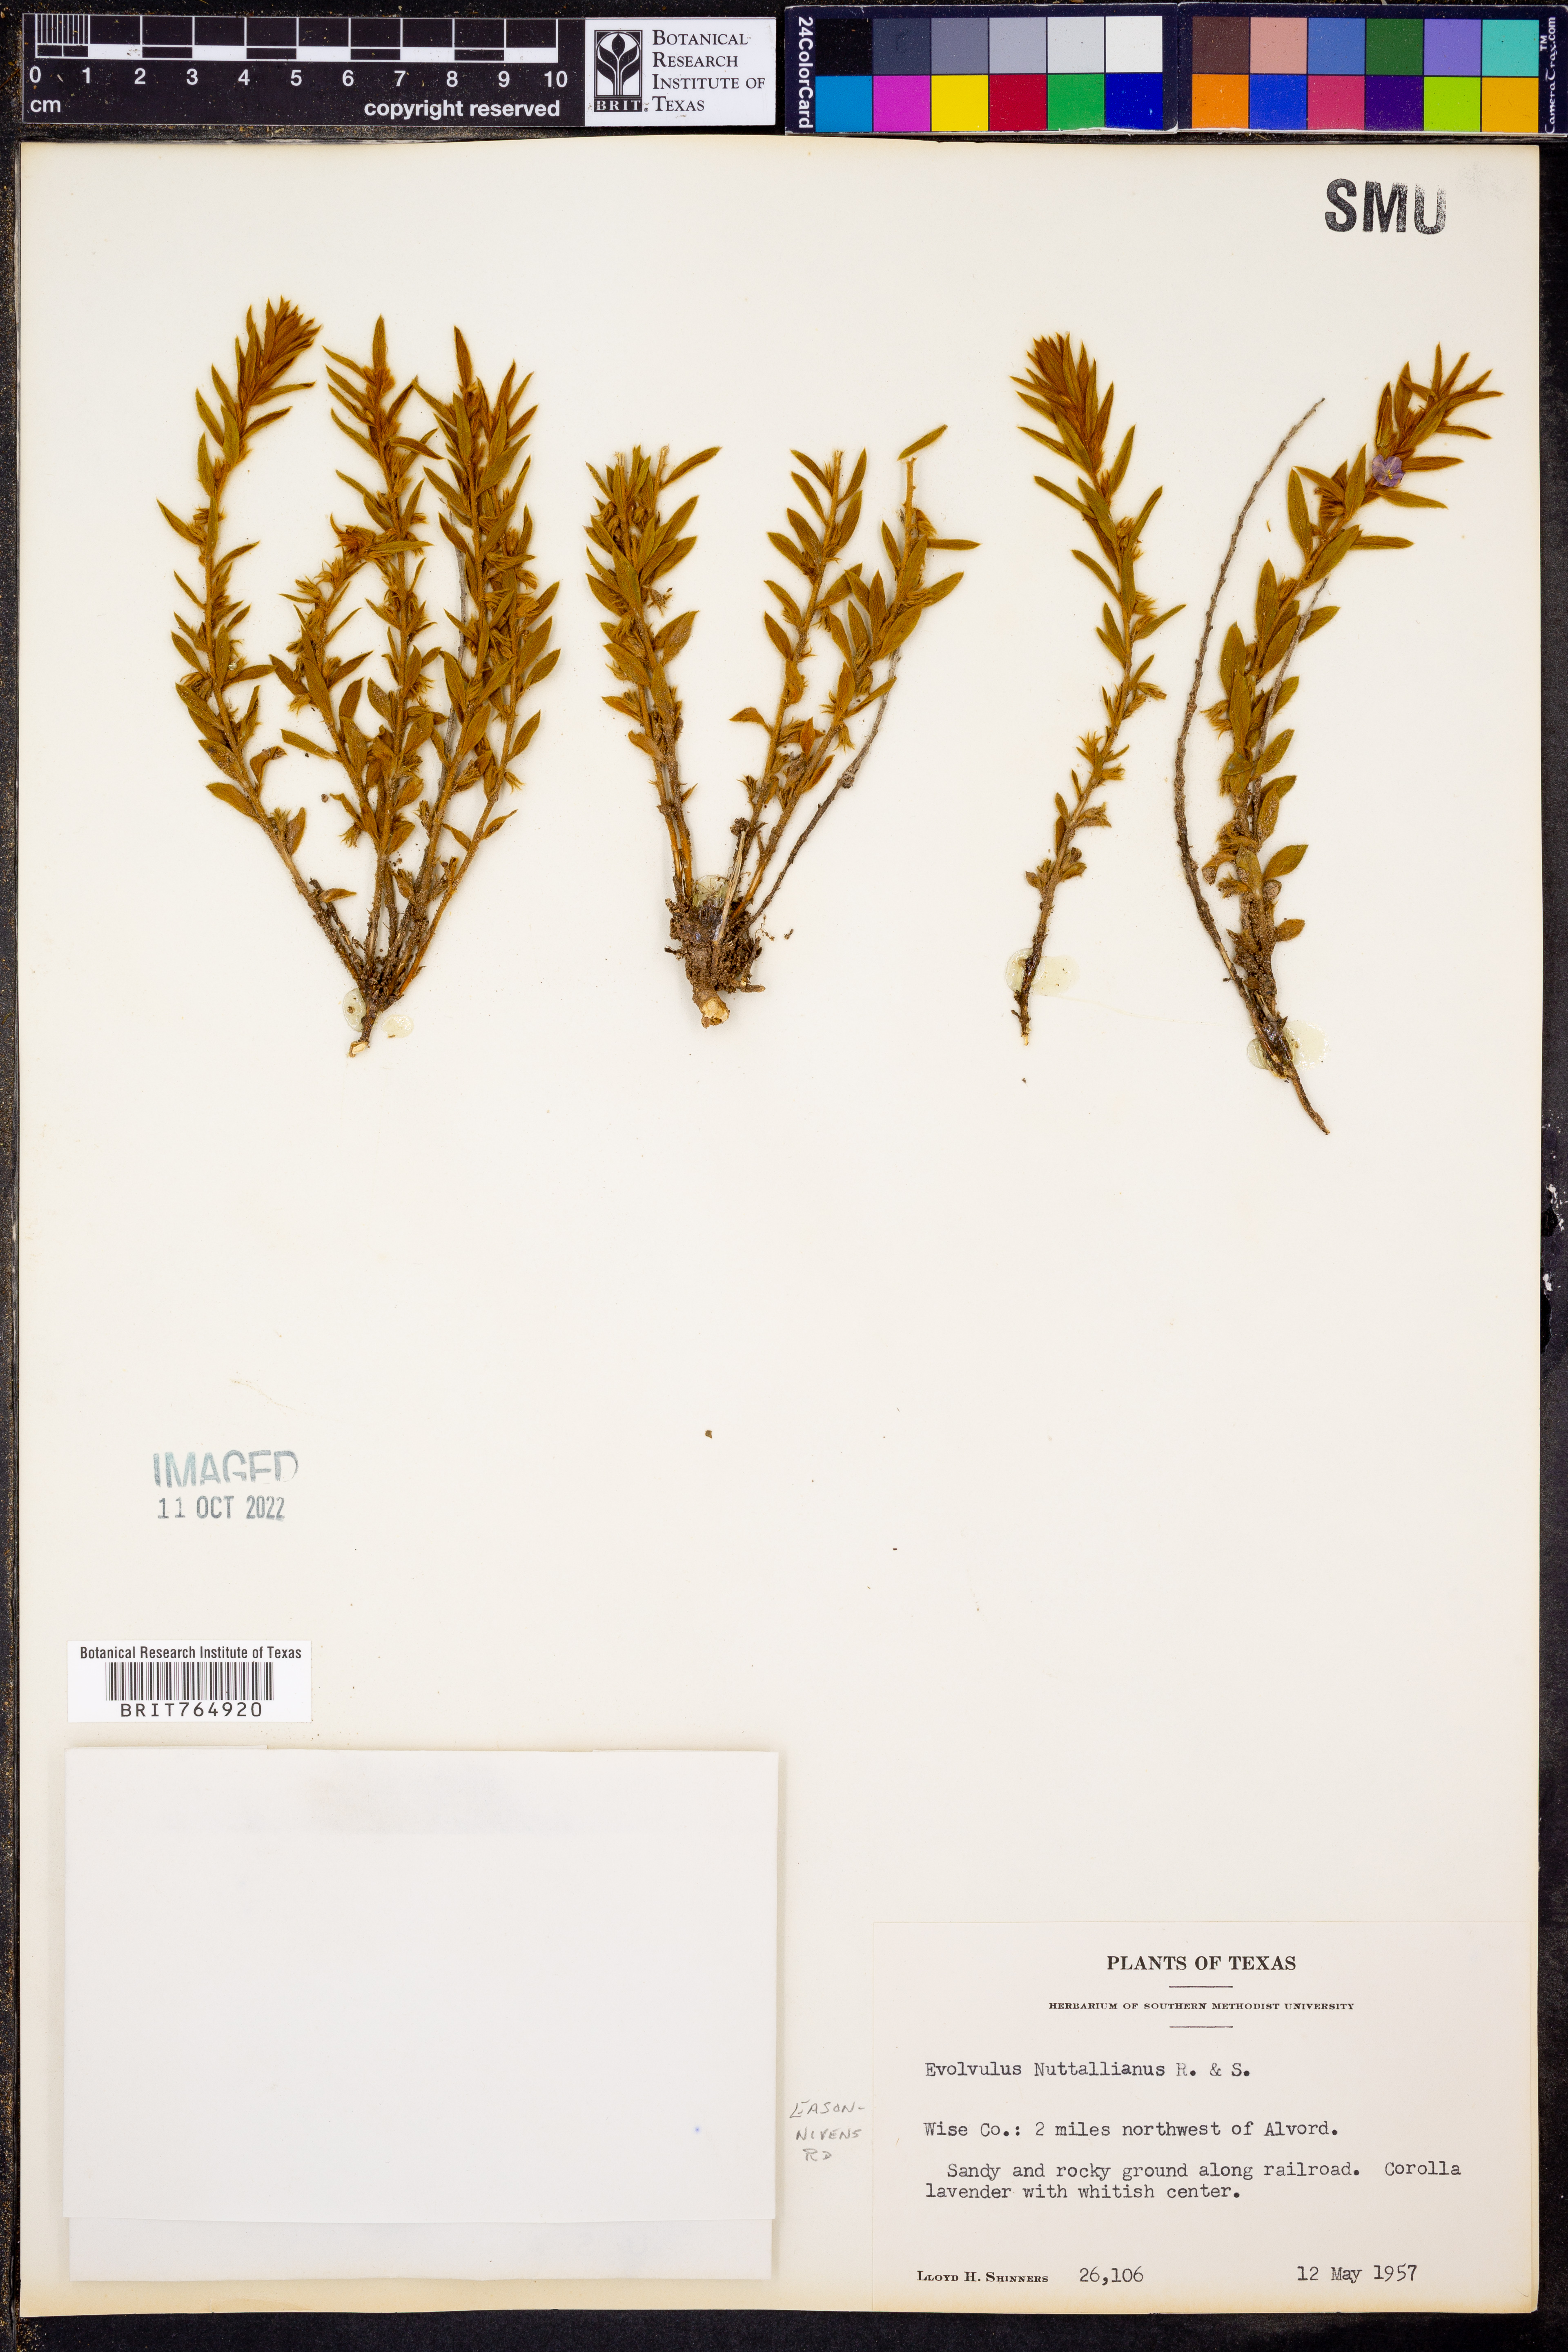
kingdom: Plantae
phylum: Tracheophyta
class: Magnoliopsida
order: Solanales
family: Convolvulaceae
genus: Evolvulus
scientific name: Evolvulus nuttallianus
